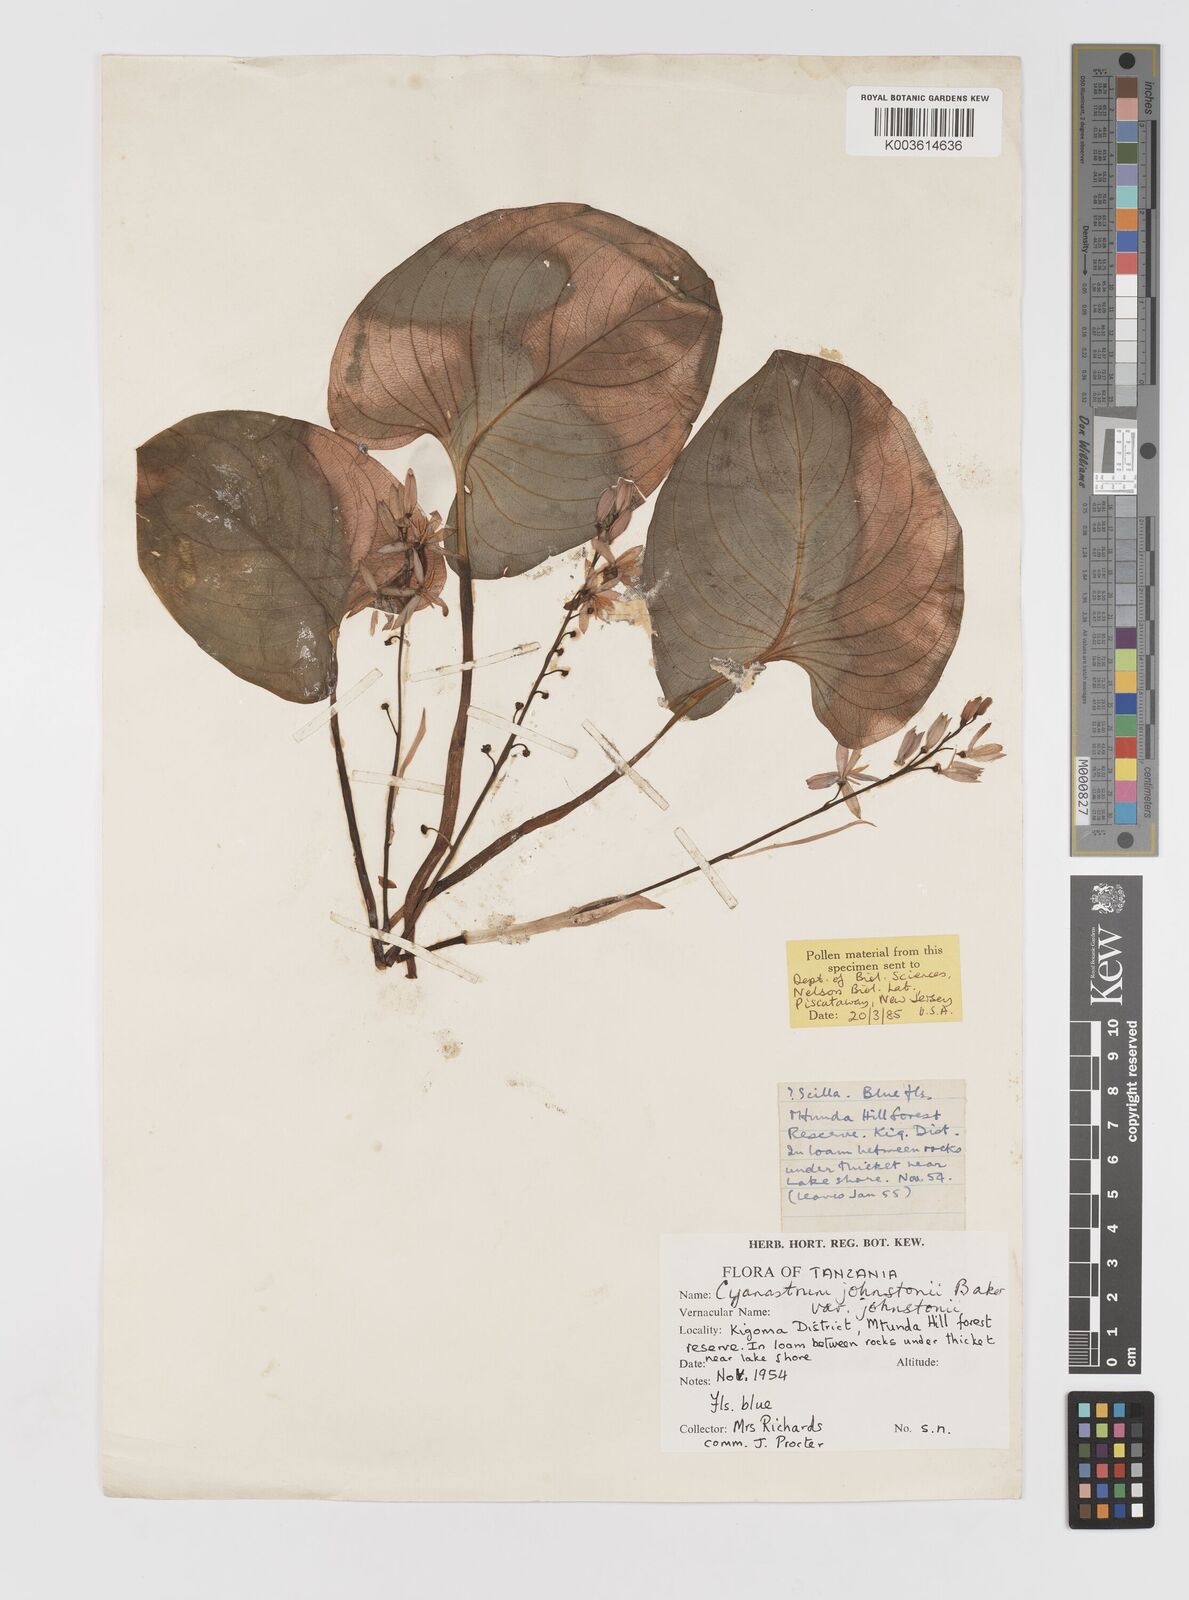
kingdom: Plantae
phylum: Tracheophyta
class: Liliopsida
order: Asparagales
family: Tecophilaeaceae
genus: Cyanastrum
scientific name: Cyanastrum johnstonii
